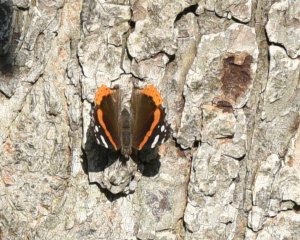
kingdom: Animalia
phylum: Arthropoda
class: Insecta
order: Lepidoptera
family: Nymphalidae
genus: Vanessa
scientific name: Vanessa atalanta
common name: Red Admiral
